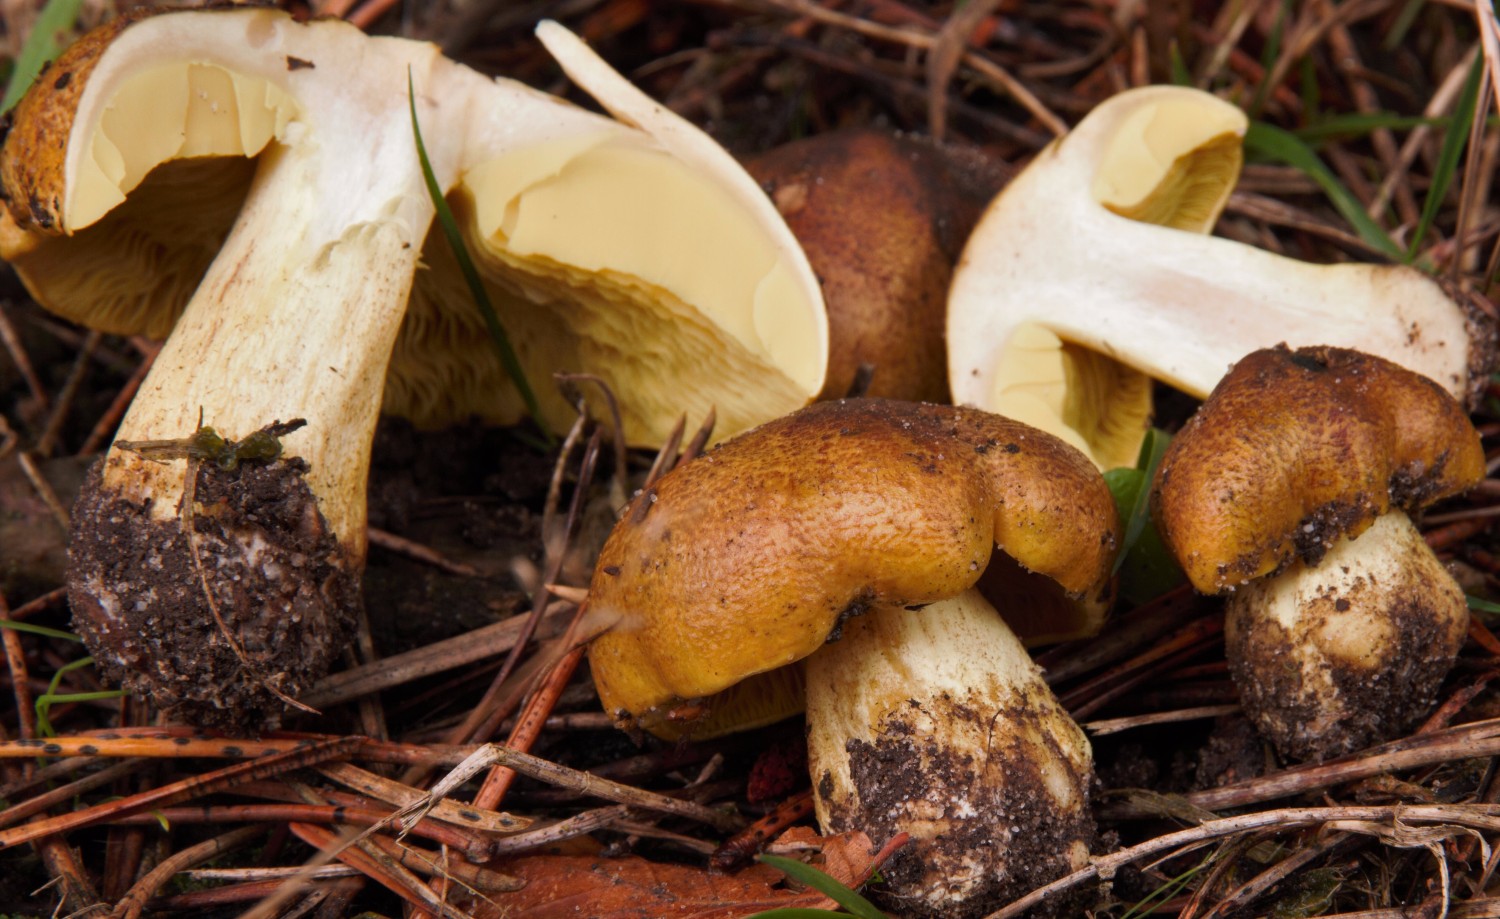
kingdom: Fungi
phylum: Basidiomycota
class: Agaricomycetes
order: Agaricales
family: Tricholomataceae
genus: Tricholoma
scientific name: Tricholoma equestre
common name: ægte ridderhat
